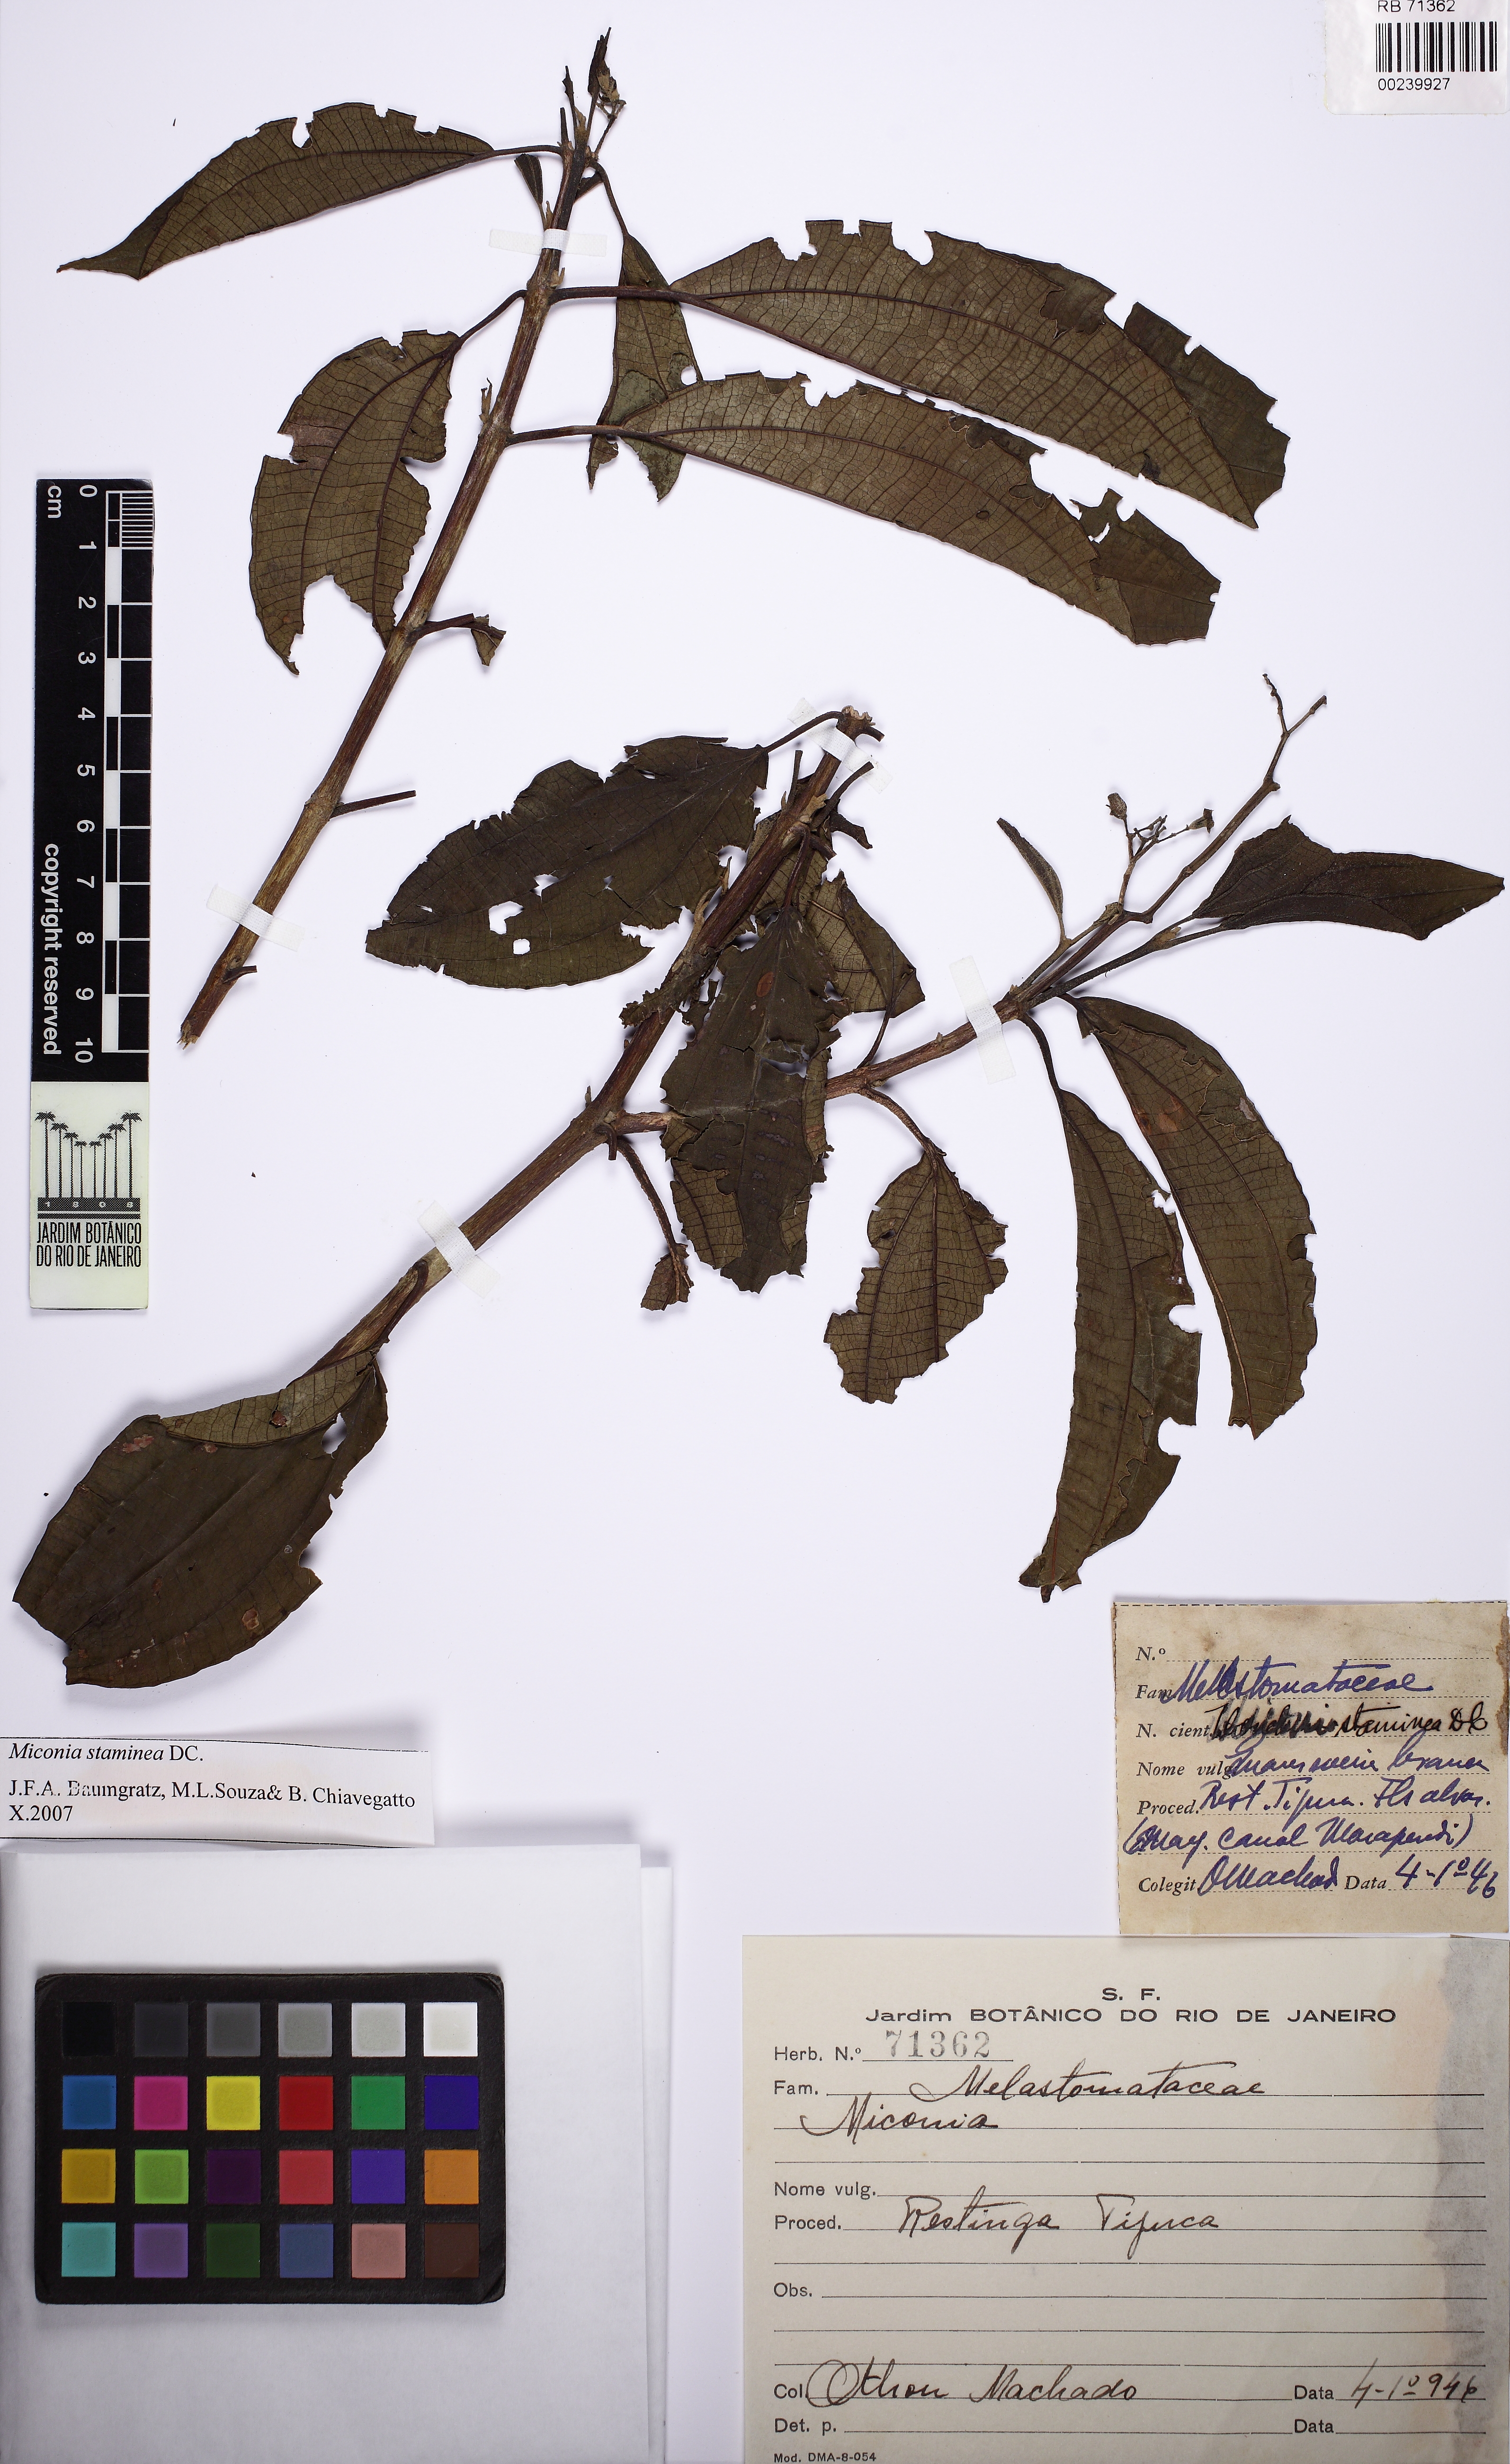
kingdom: Plantae
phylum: Tracheophyta
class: Magnoliopsida
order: Myrtales
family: Melastomataceae
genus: Miconia
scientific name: Miconia staminea
